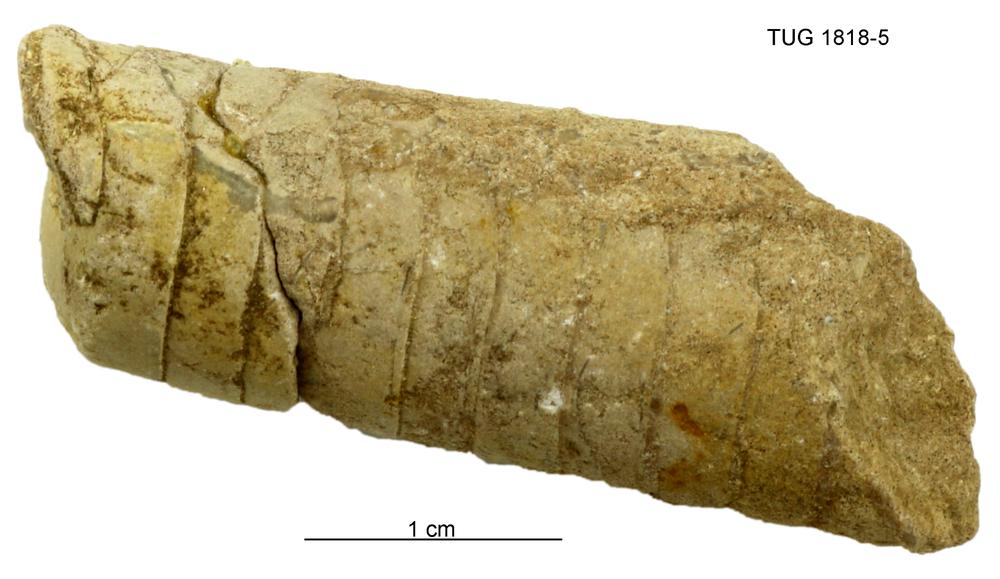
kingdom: Animalia
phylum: Mollusca
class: Cephalopoda
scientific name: Cephalopoda
